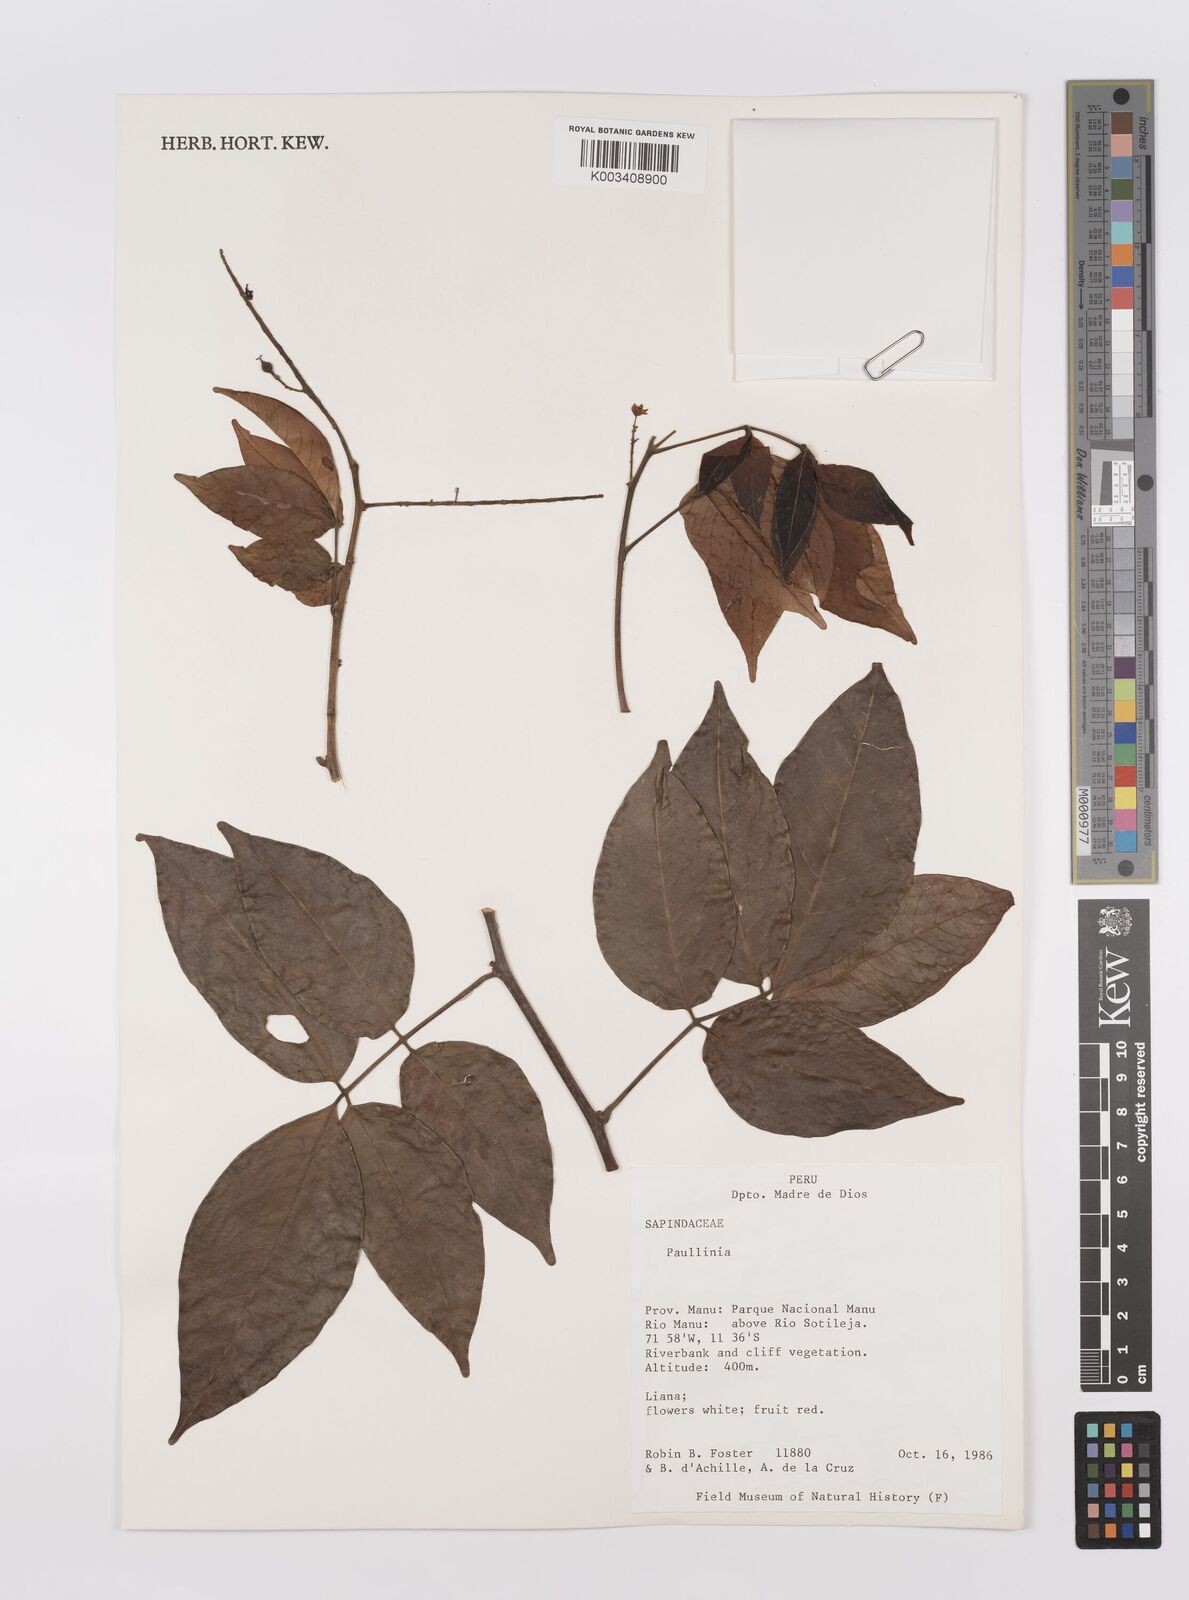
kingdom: Plantae
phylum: Tracheophyta
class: Magnoliopsida
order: Sapindales
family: Sapindaceae
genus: Paullinia
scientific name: Paullinia
